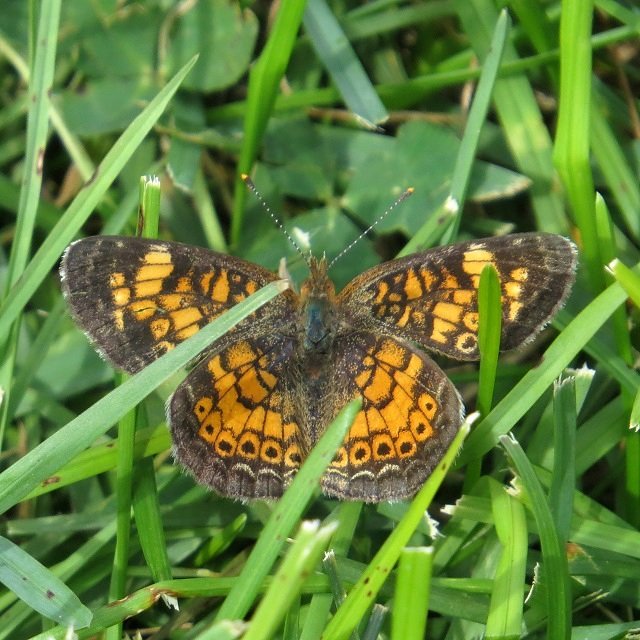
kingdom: Animalia
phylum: Arthropoda
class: Insecta
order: Lepidoptera
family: Nymphalidae
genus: Phyciodes
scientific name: Phyciodes tharos
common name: Northern Crescent
